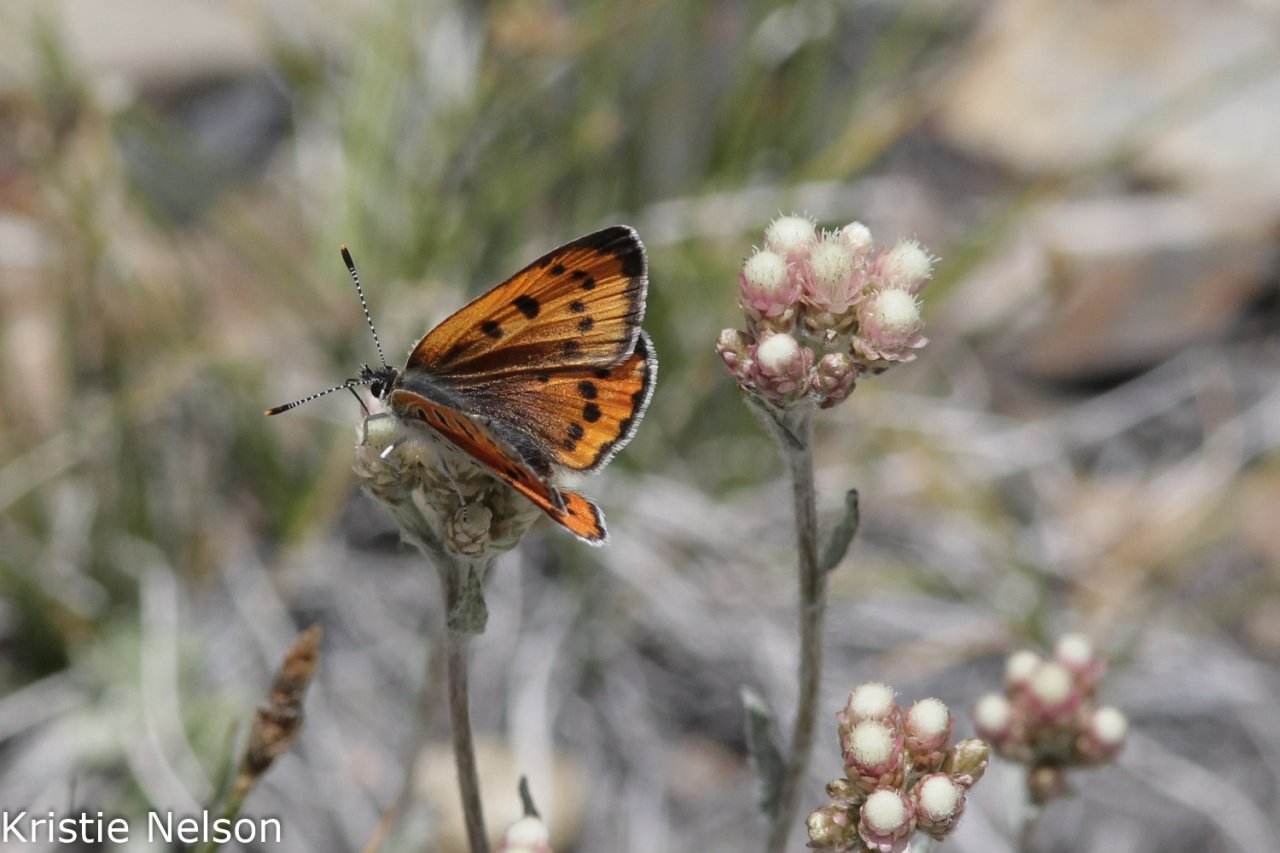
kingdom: Animalia
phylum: Arthropoda
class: Insecta
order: Lepidoptera
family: Lycaenidae
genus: Lycaena
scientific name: Lycaena cupreus
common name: Lustrous Copper
